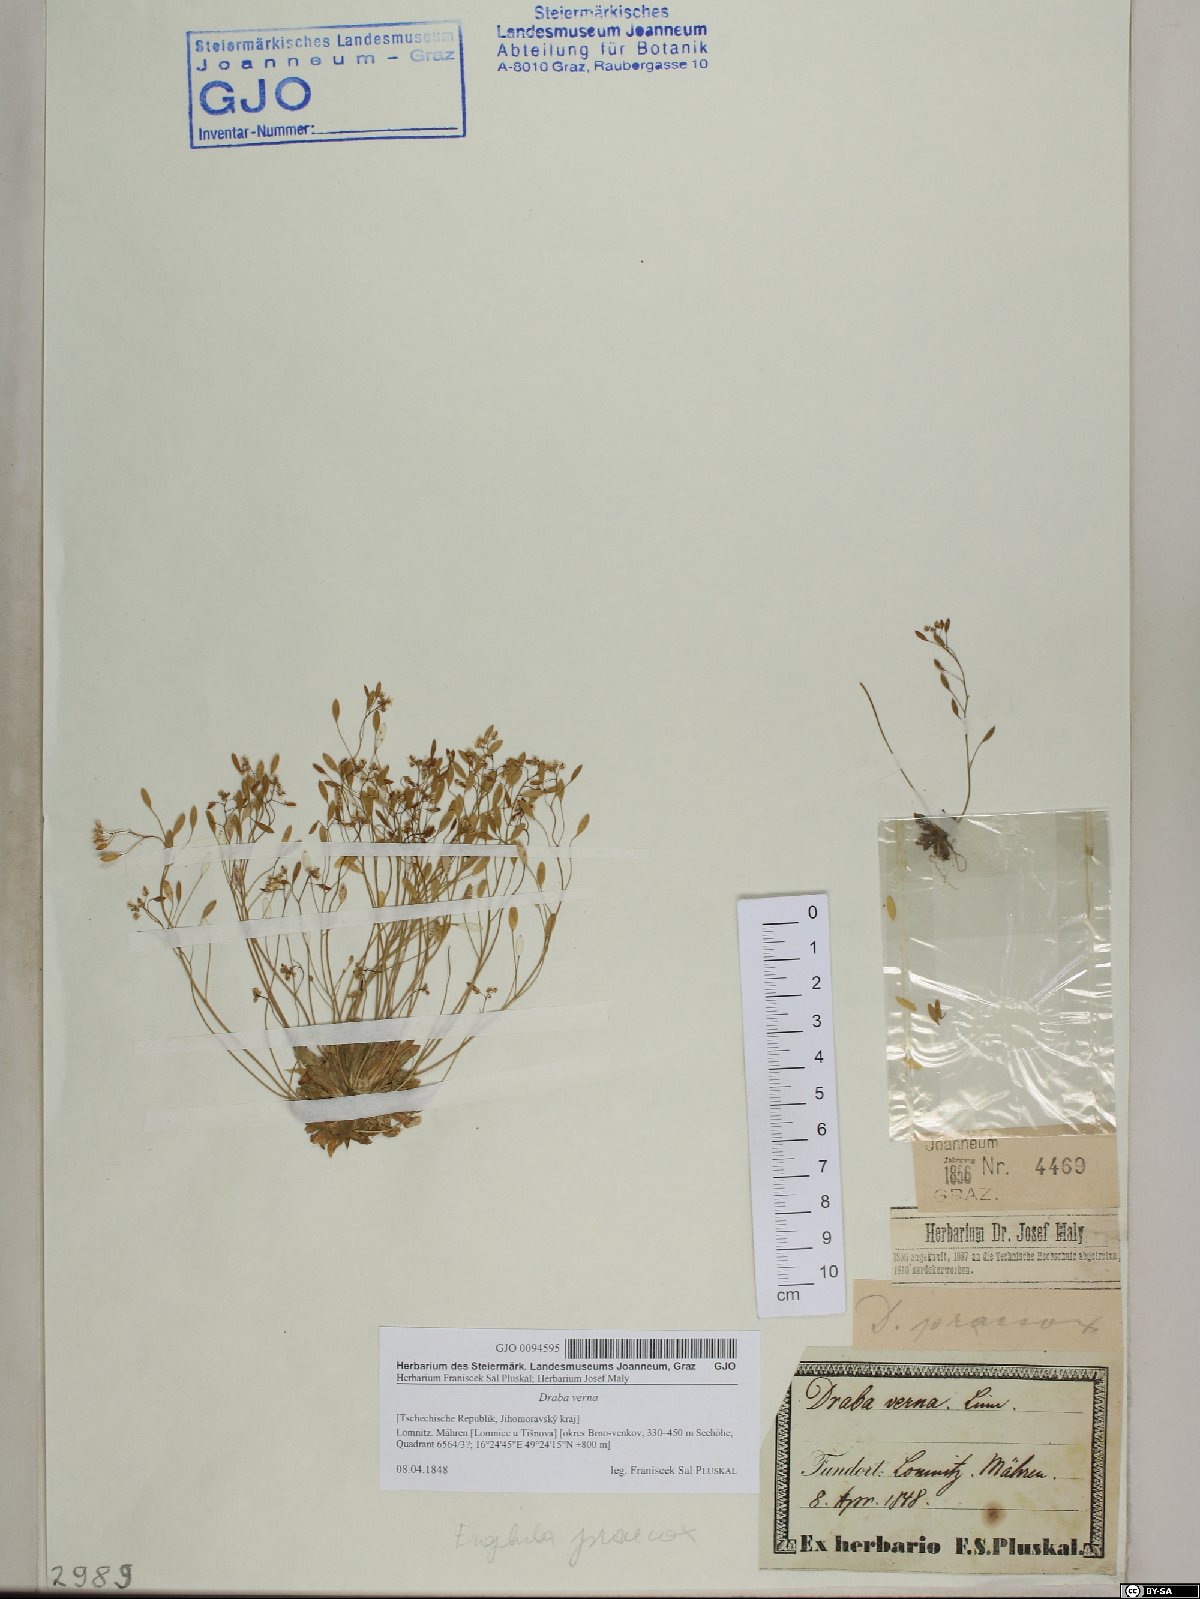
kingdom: Plantae
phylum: Tracheophyta
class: Magnoliopsida
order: Brassicales
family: Brassicaceae
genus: Draba
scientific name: Draba verna
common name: Spring draba
